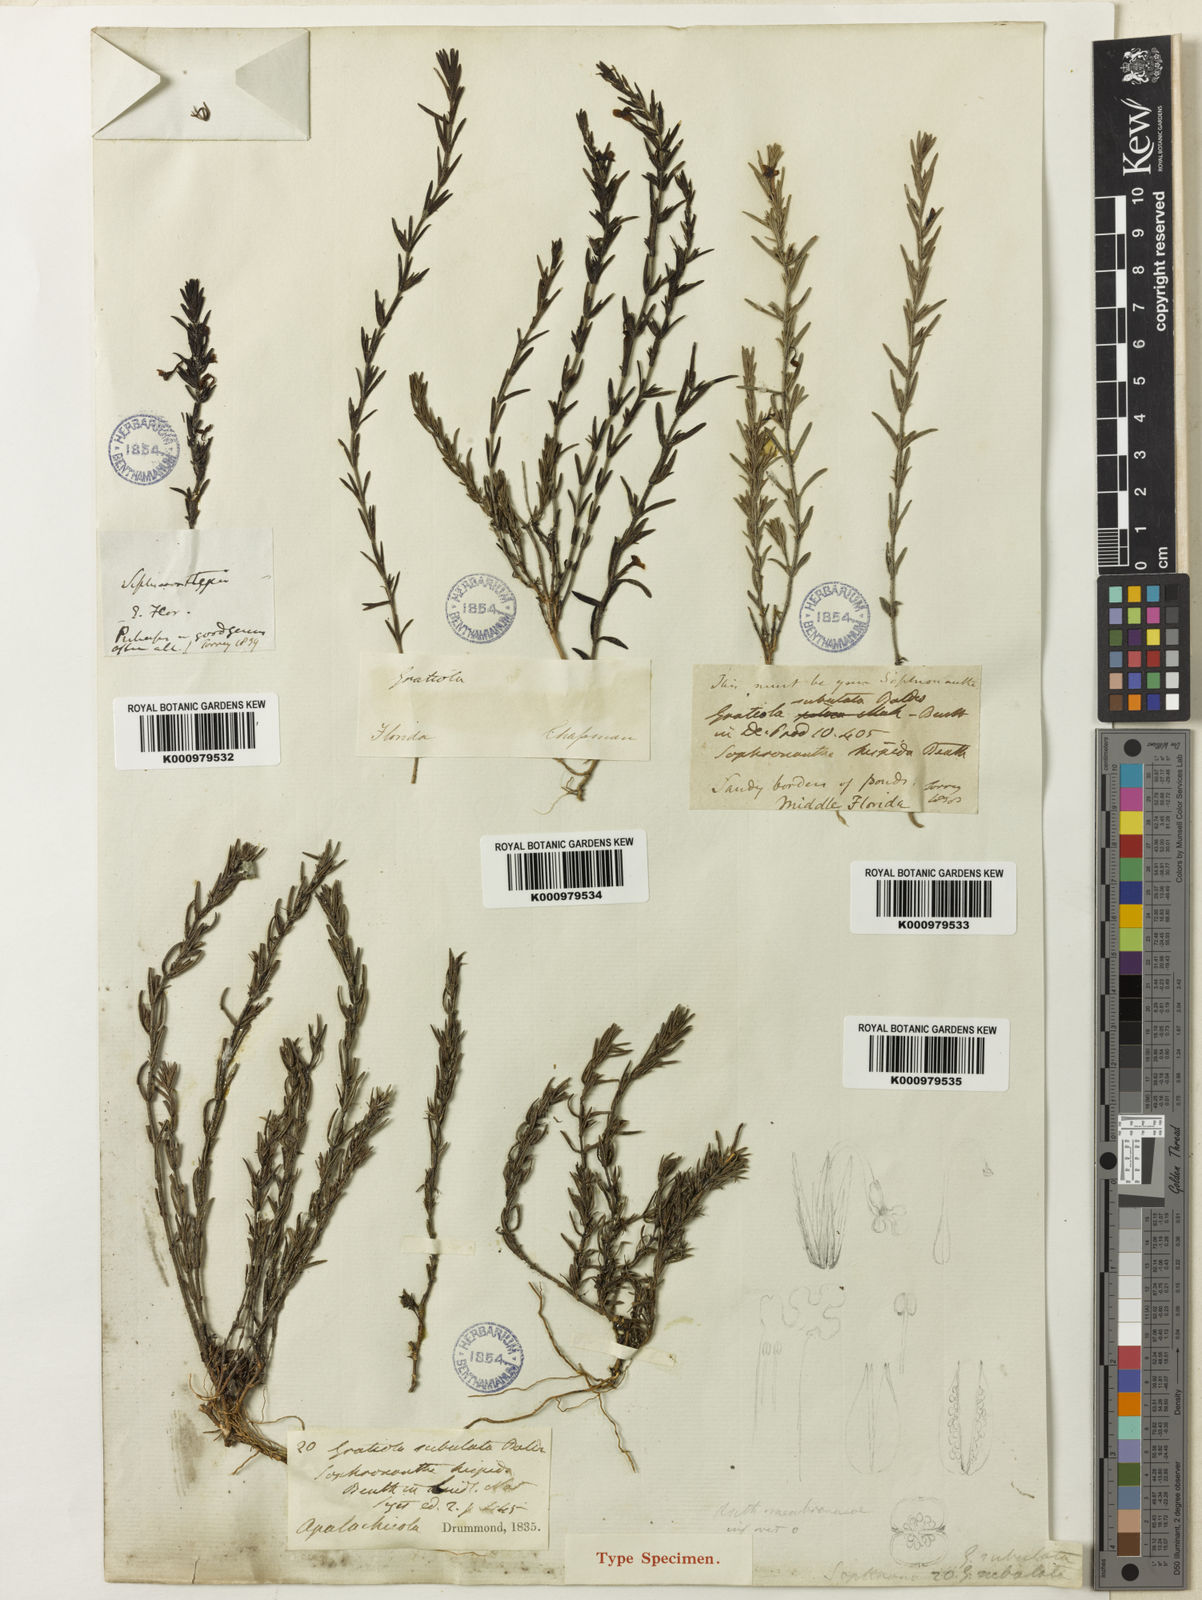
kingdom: Plantae
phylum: Tracheophyta
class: Magnoliopsida
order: Lamiales
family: Plantaginaceae
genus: Gratiola
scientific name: Gratiola hispida
